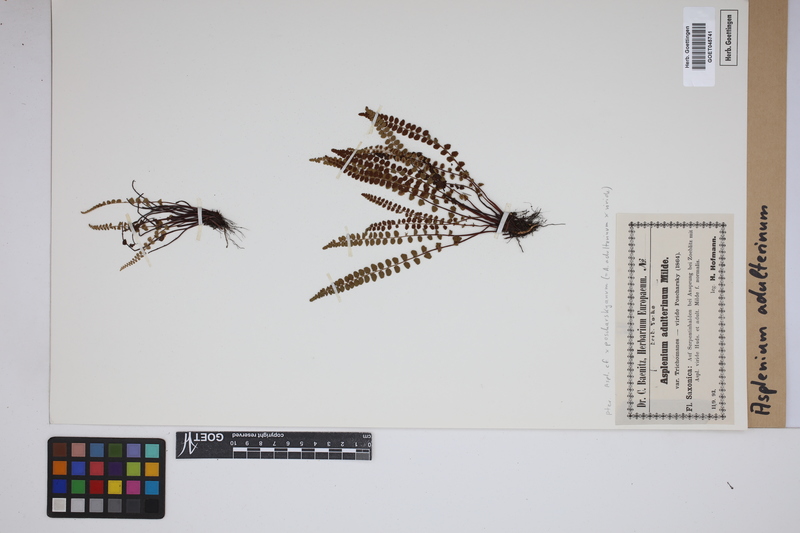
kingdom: Plantae
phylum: Tracheophyta
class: Polypodiopsida
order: Polypodiales
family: Aspleniaceae
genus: Asplenium
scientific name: Asplenium adulterinum
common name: Adulterated spleenwort
